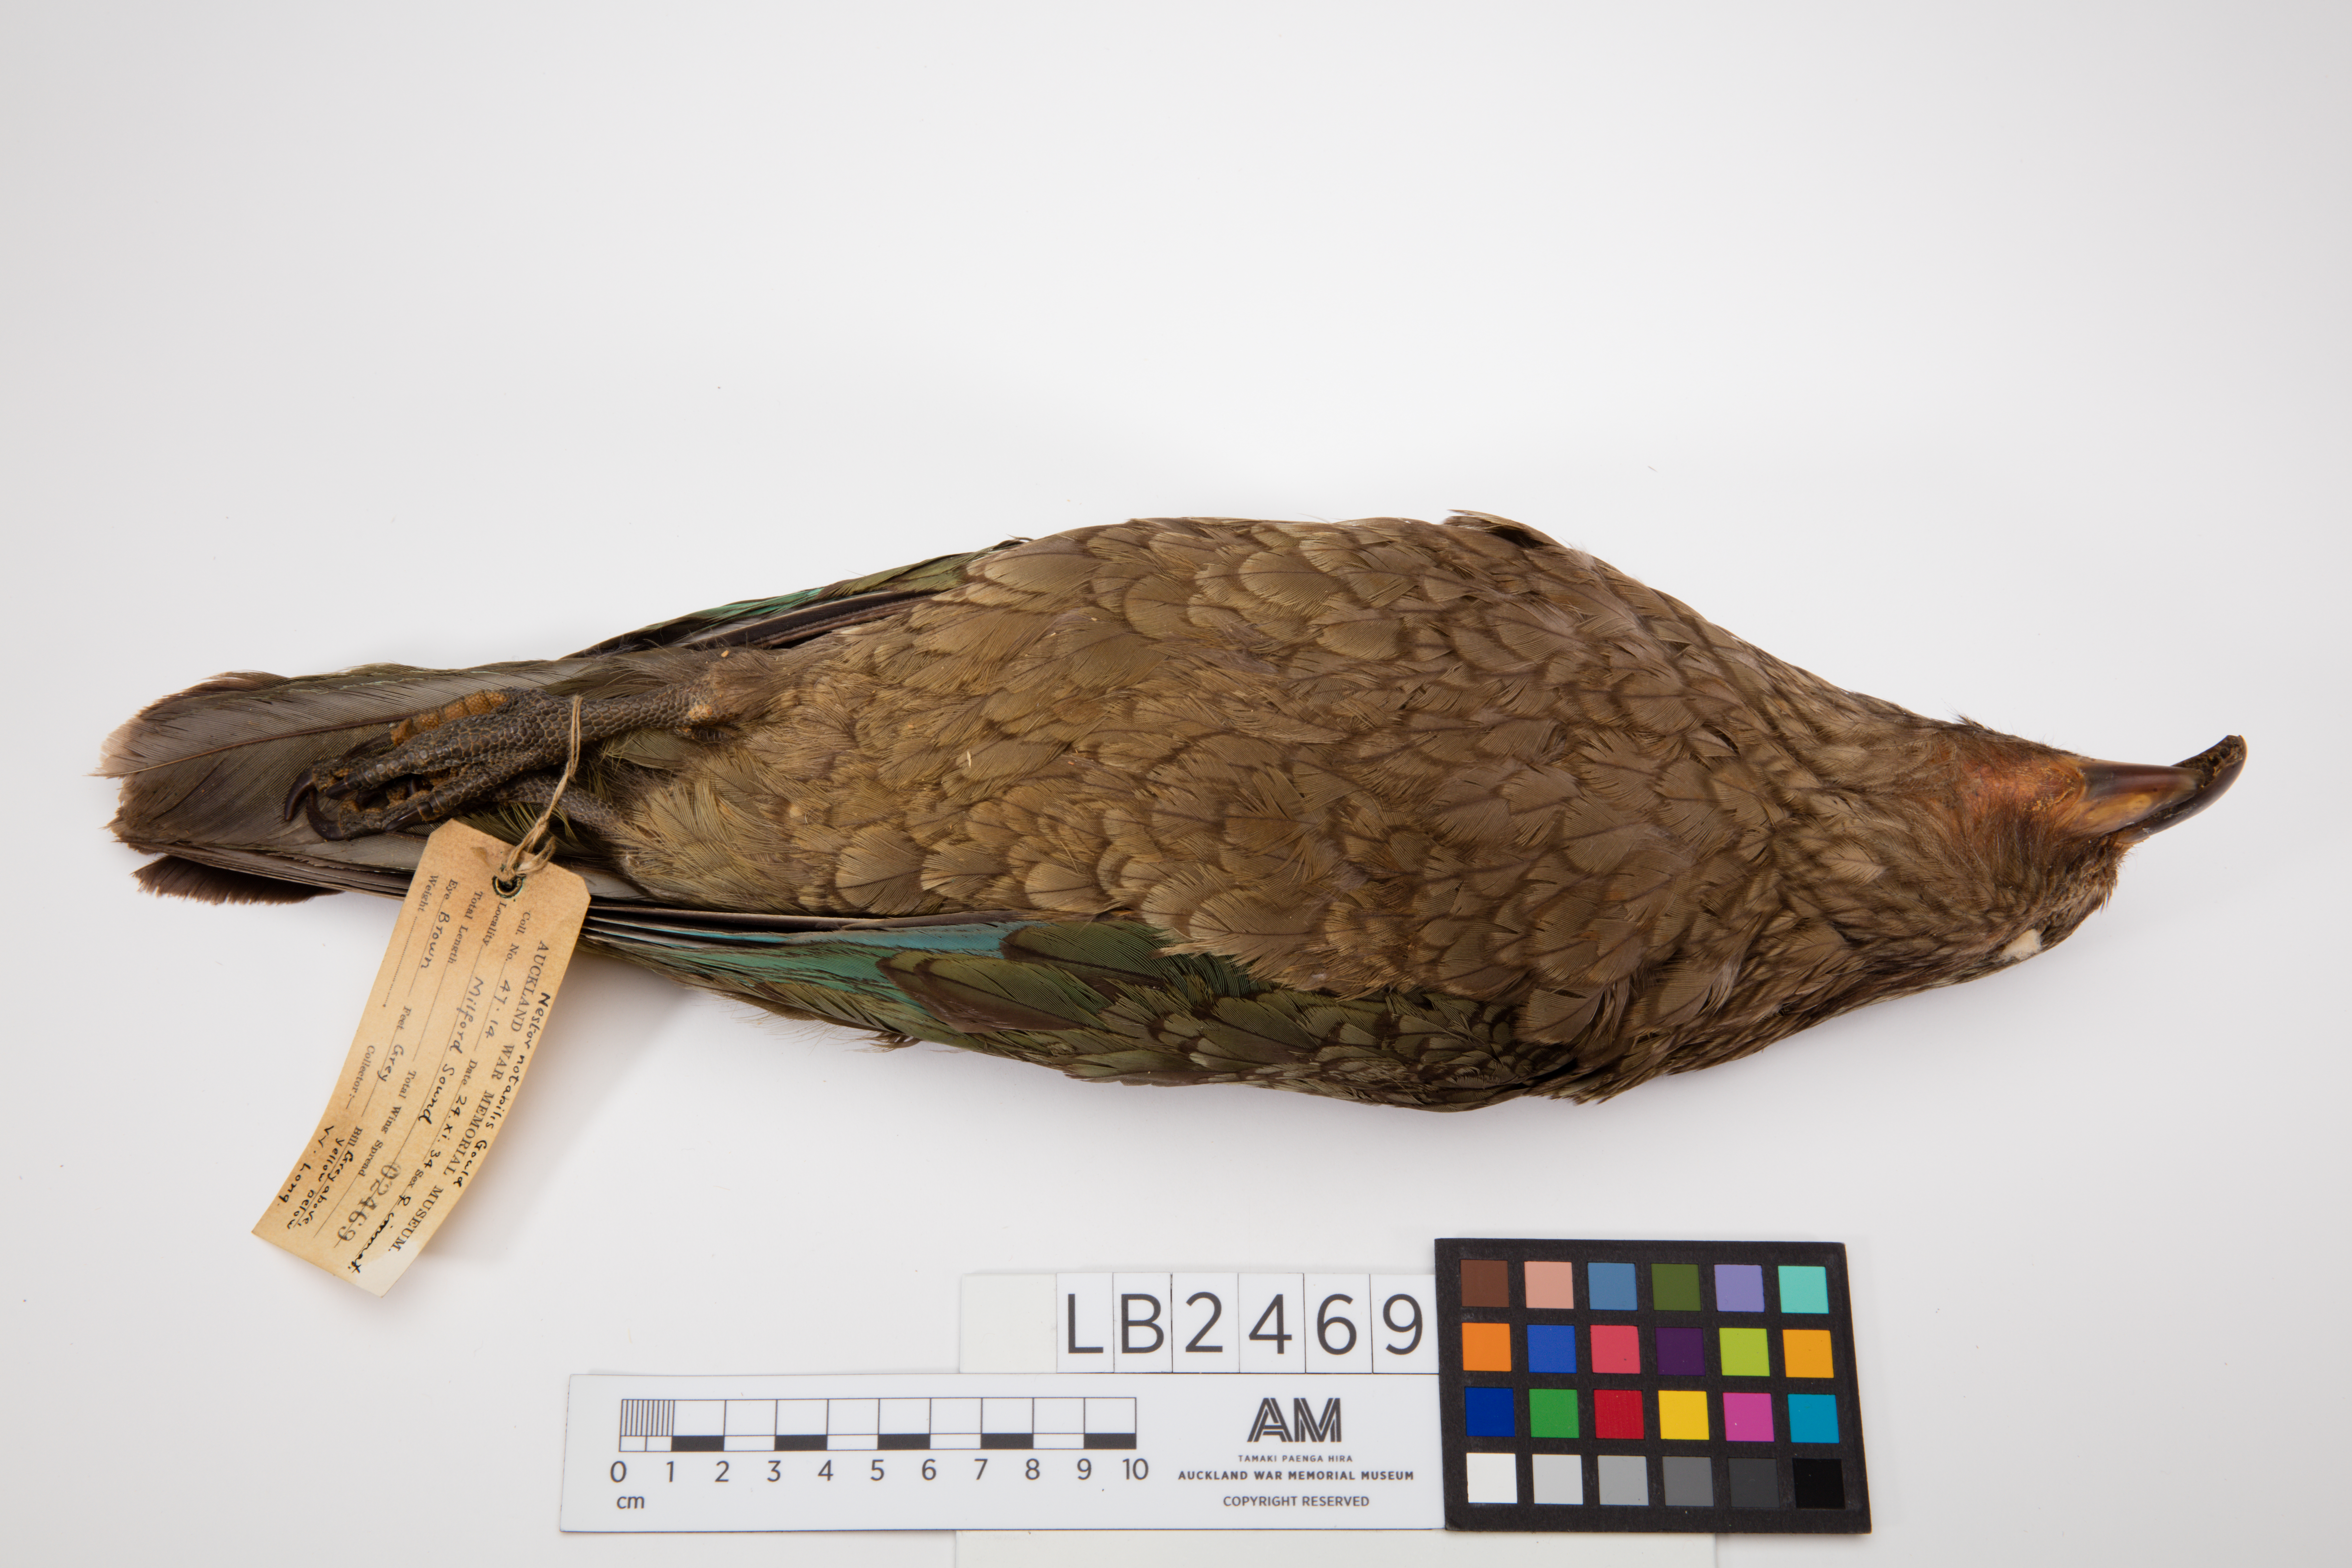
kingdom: Animalia
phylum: Chordata
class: Aves
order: Psittaciformes
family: Psittacidae
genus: Nestor
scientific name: Nestor notabilis
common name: Kea
